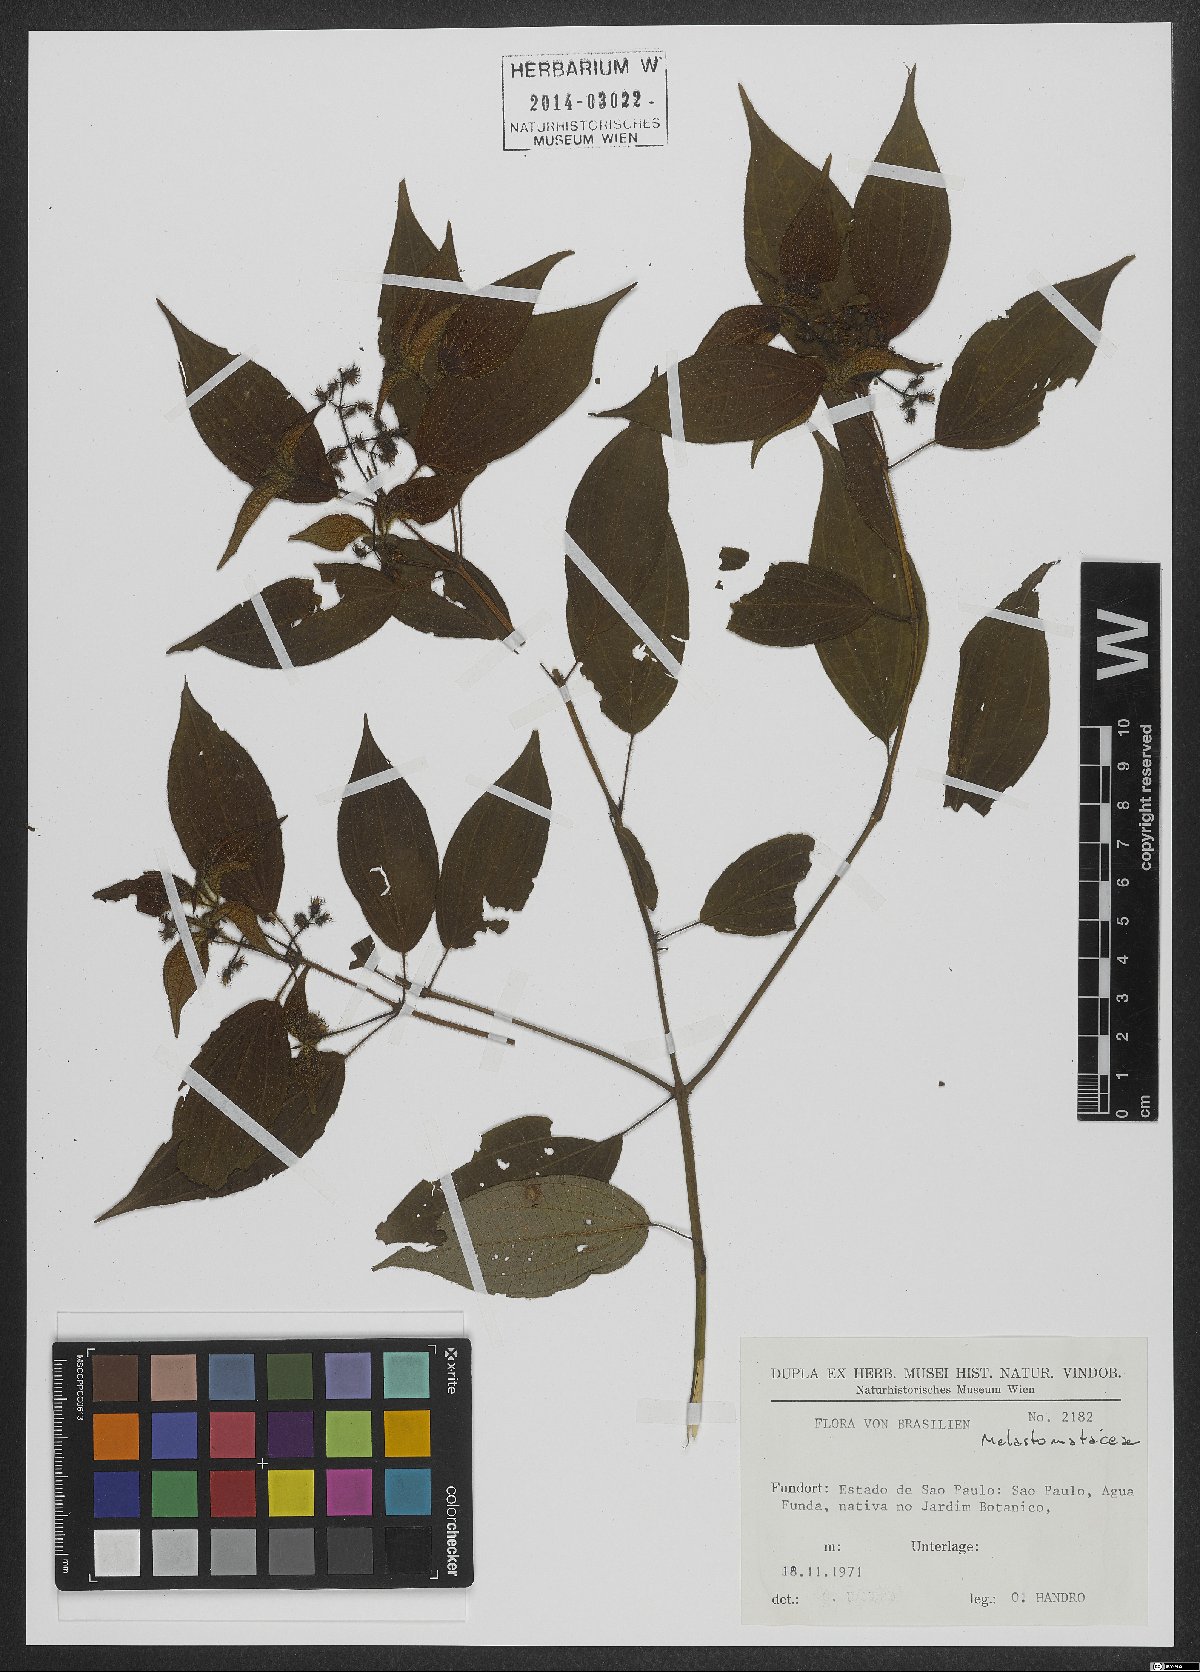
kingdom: Plantae
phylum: Tracheophyta
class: Magnoliopsida
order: Myrtales
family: Melastomataceae
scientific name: Melastomataceae
